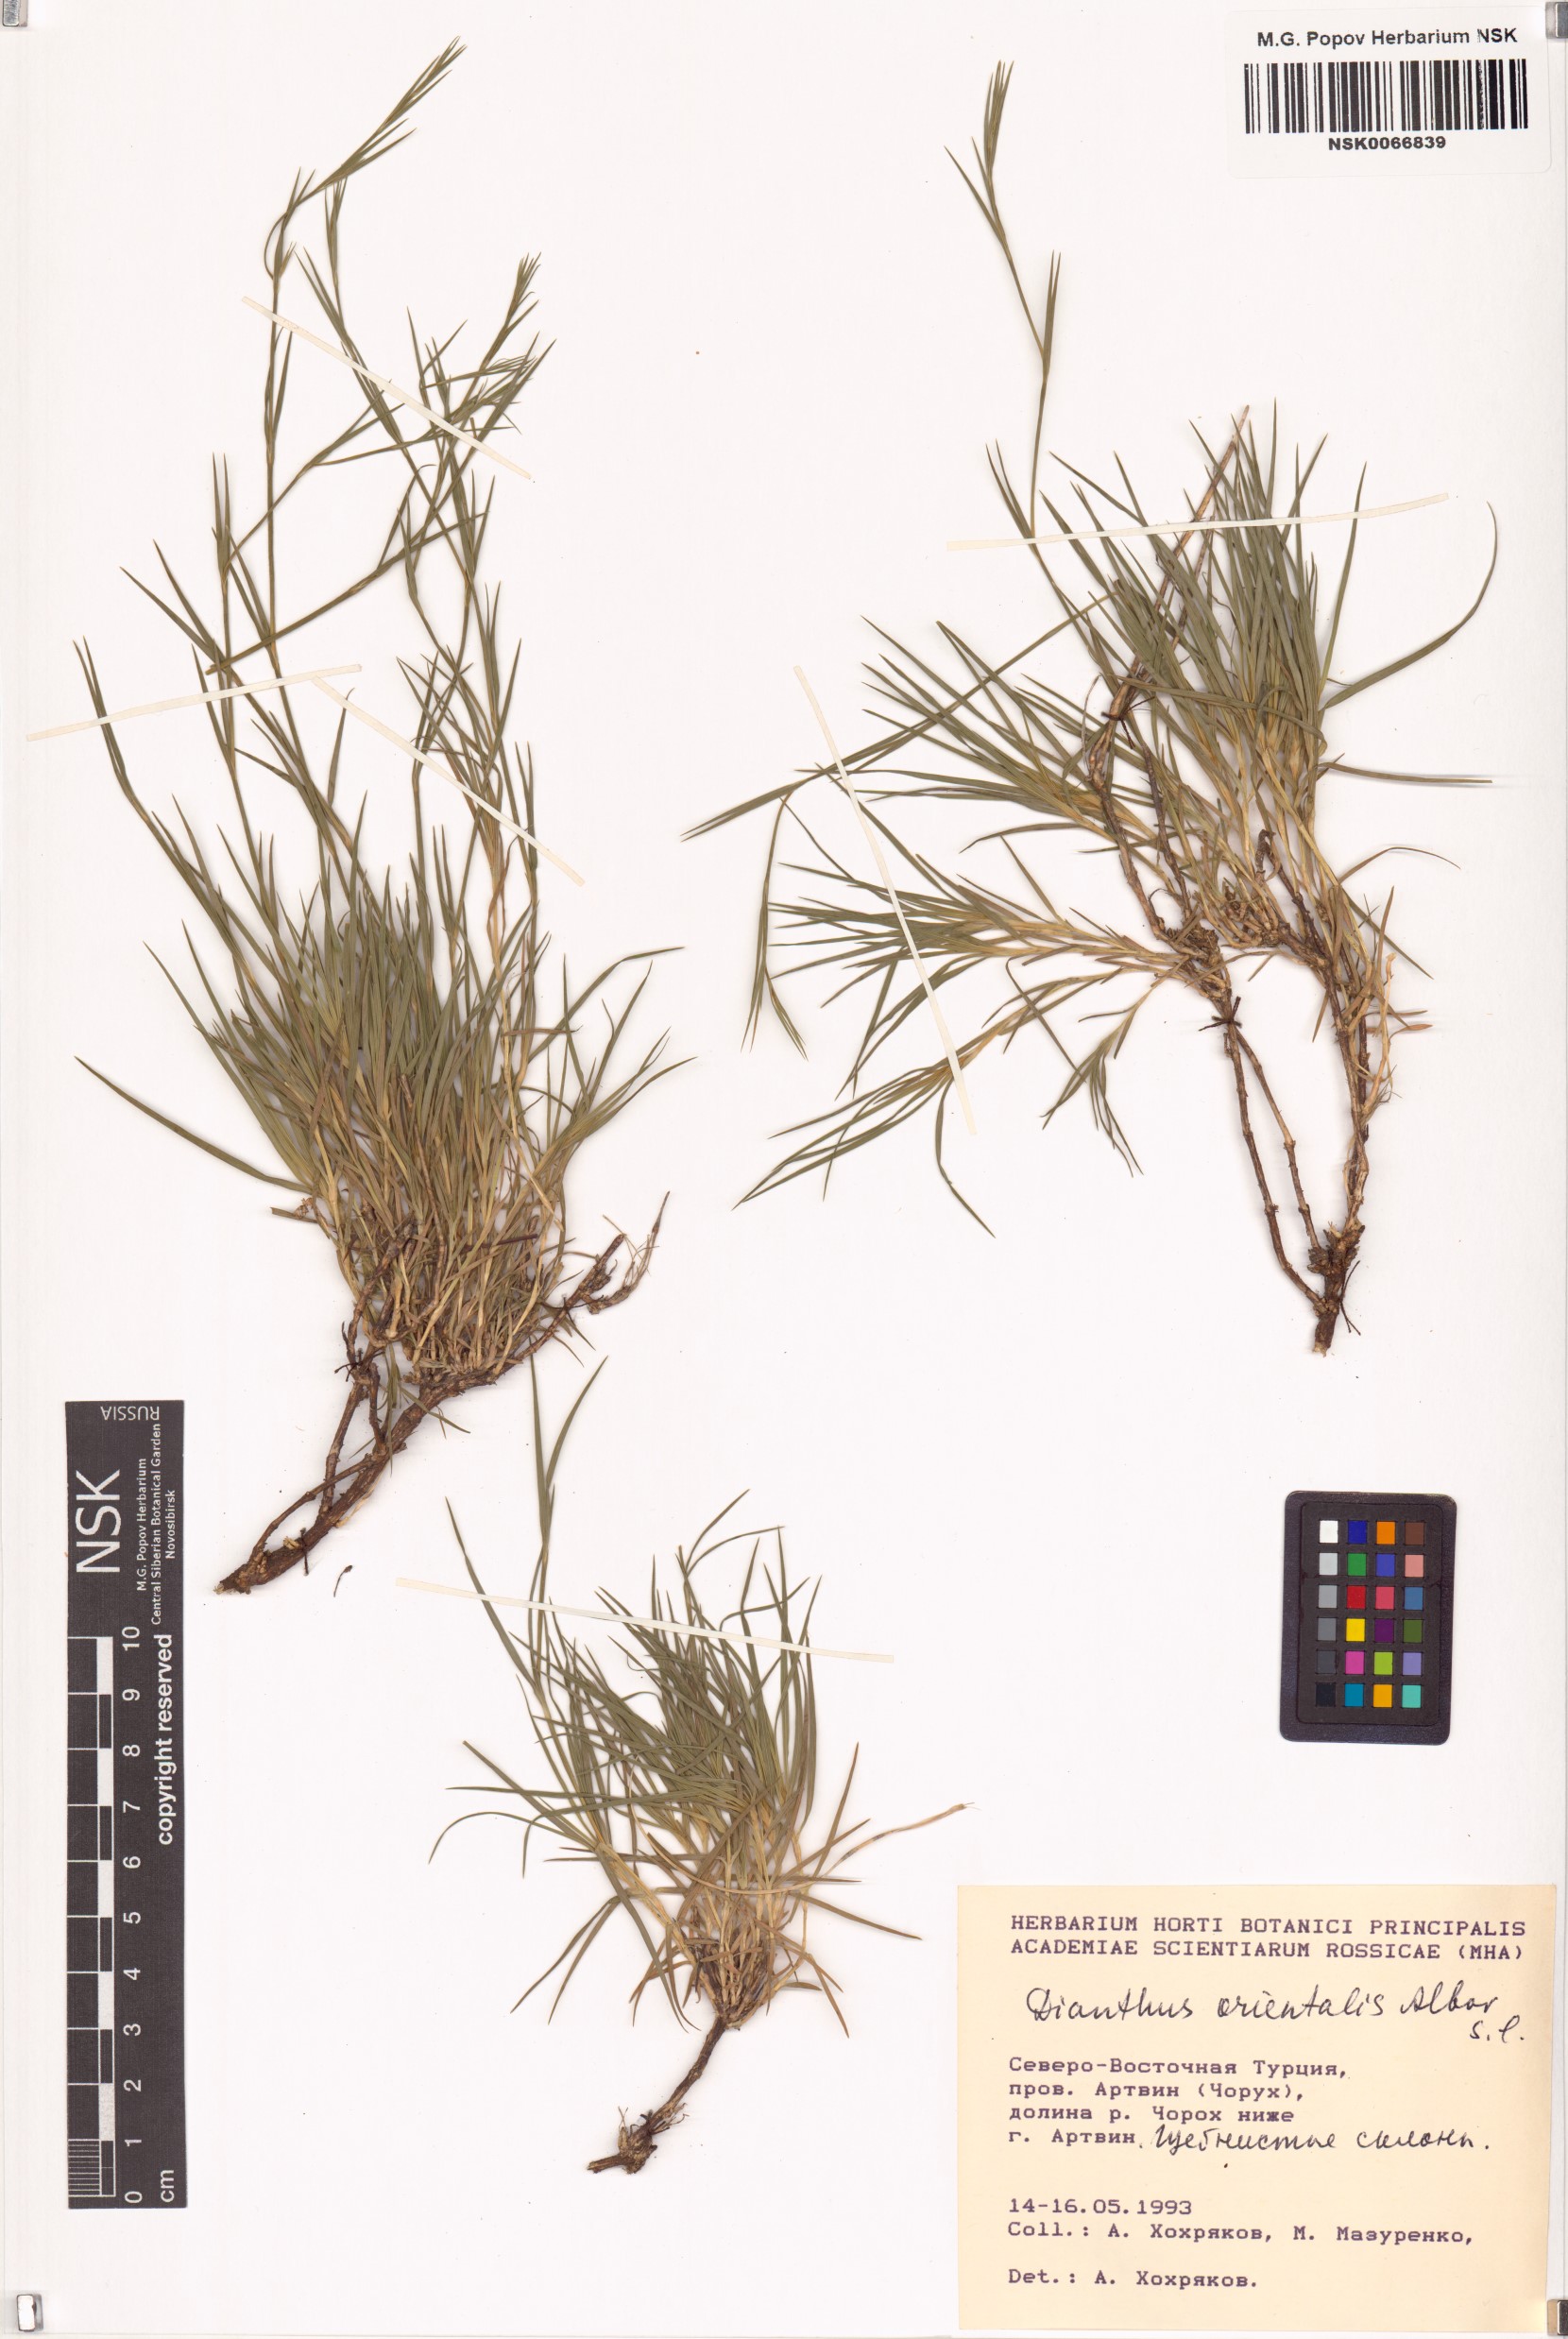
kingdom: Plantae
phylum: Tracheophyta
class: Magnoliopsida
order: Caryophyllales
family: Caryophyllaceae
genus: Dianthus
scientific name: Dianthus orientalis
